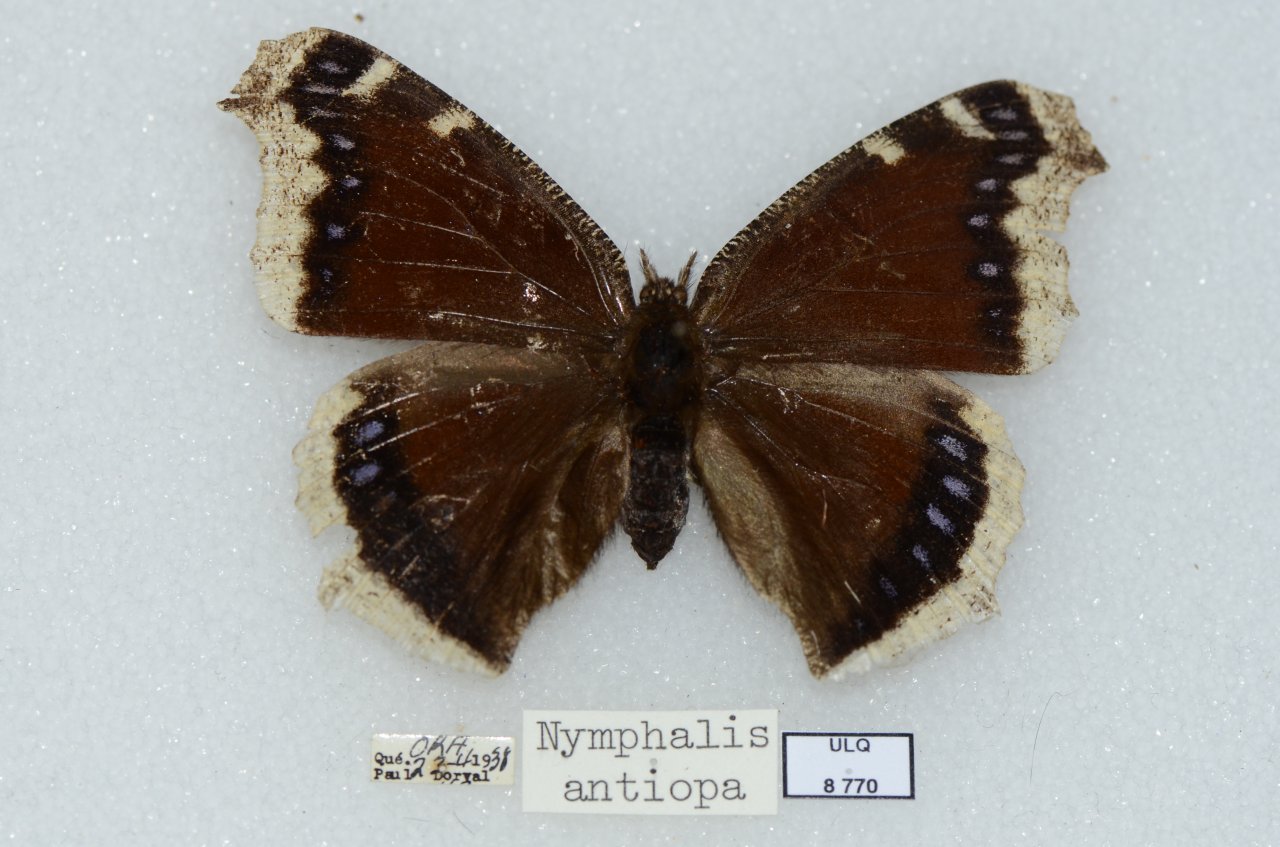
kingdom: Animalia
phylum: Arthropoda
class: Insecta
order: Lepidoptera
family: Nymphalidae
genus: Nymphalis
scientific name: Nymphalis antiopa
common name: Mourning Cloak
